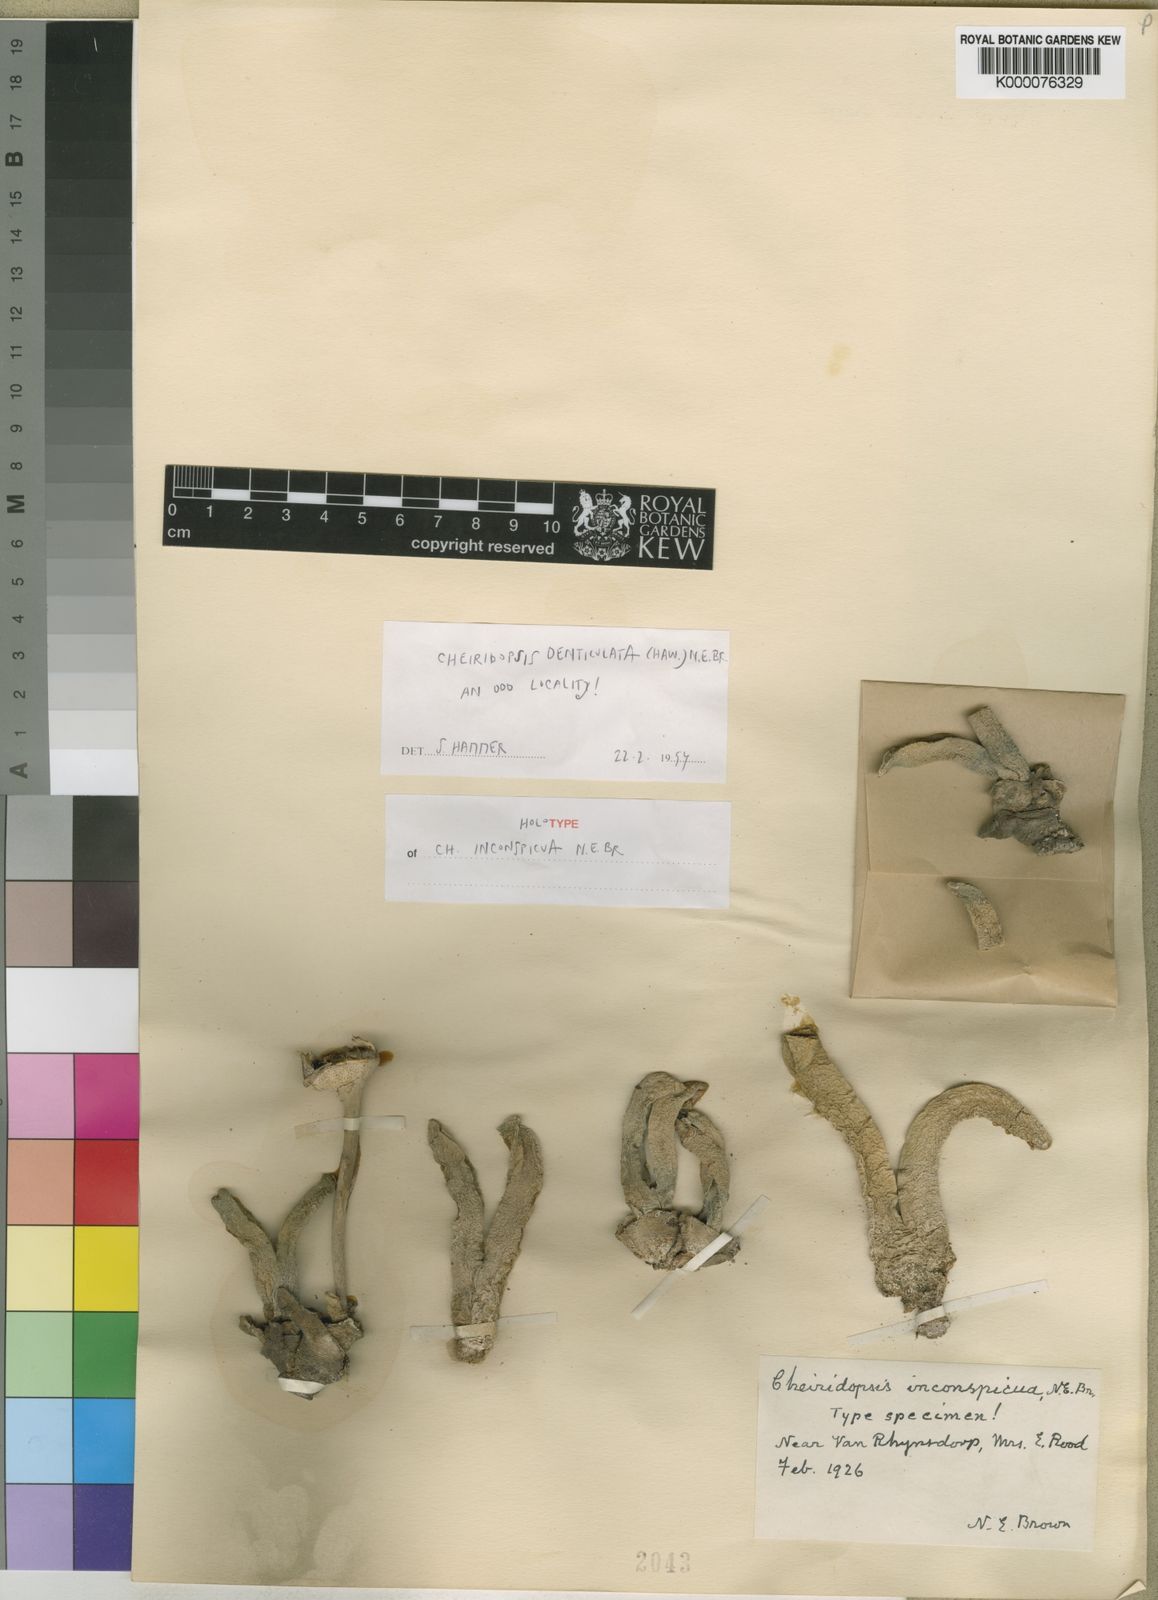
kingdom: Plantae
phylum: Tracheophyta
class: Magnoliopsida
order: Caryophyllales
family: Aizoaceae
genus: Cheiridopsis
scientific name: Cheiridopsis denticulata
